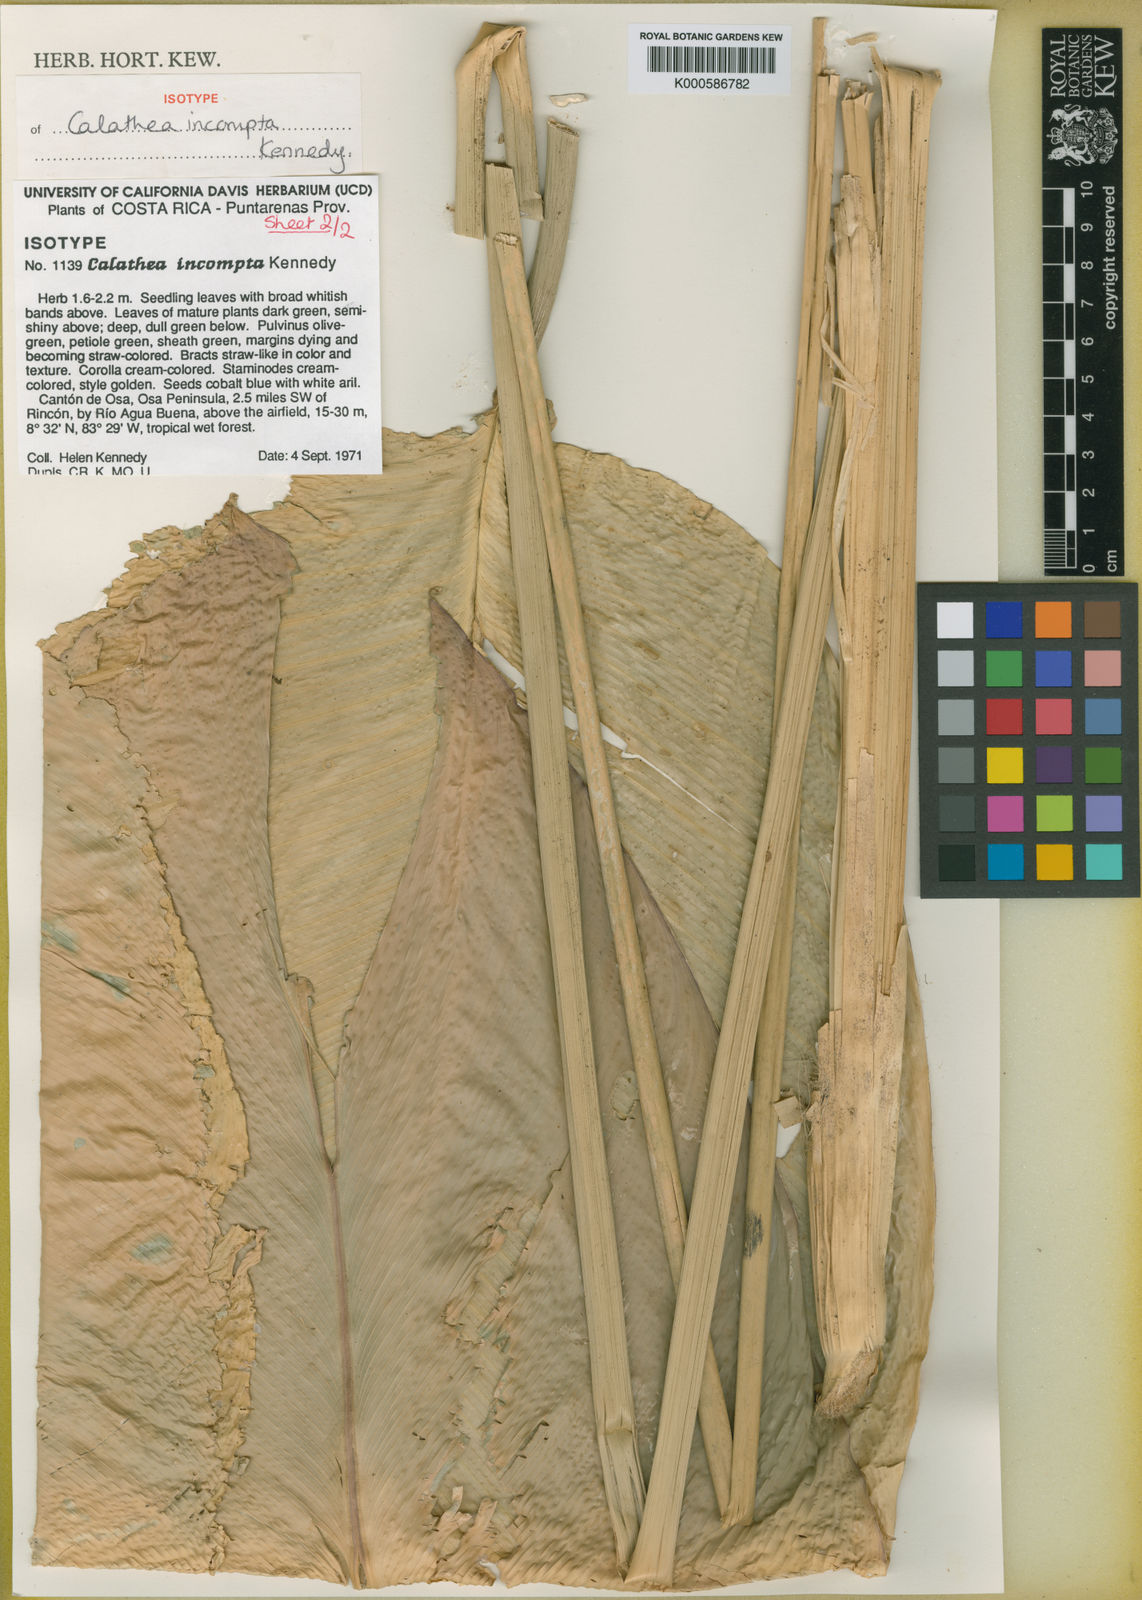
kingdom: Plantae
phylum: Tracheophyta
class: Liliopsida
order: Zingiberales
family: Marantaceae
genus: Goeppertia
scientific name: Goeppertia incompta
